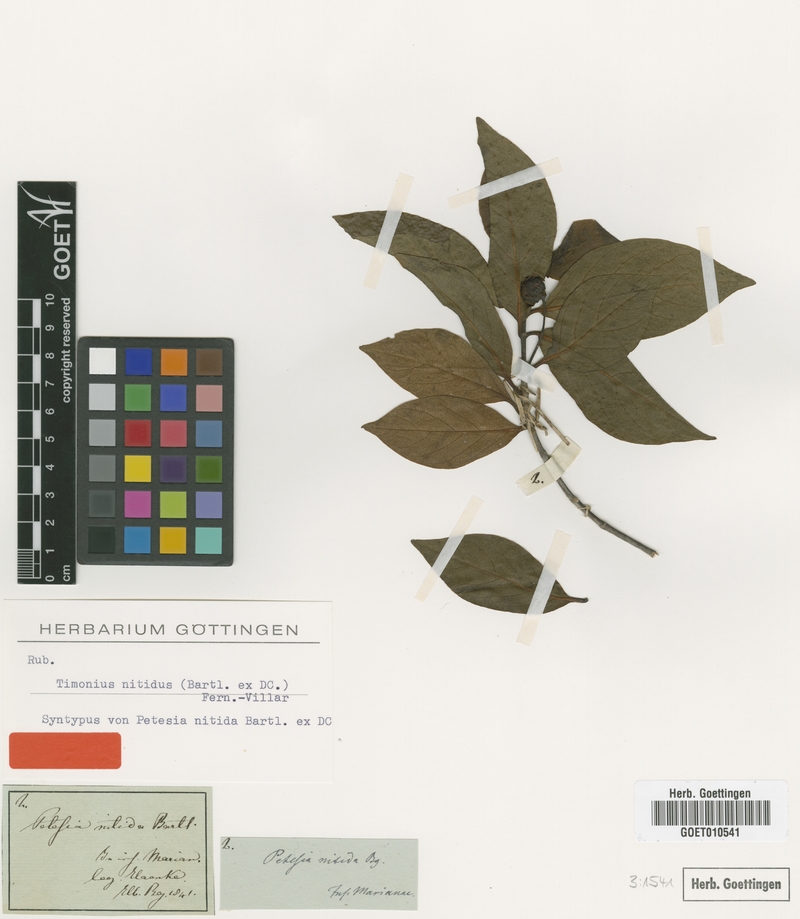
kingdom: Plantae
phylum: Tracheophyta
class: Magnoliopsida
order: Gentianales
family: Rubiaceae
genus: Timonius
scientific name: Timonius nitidus
